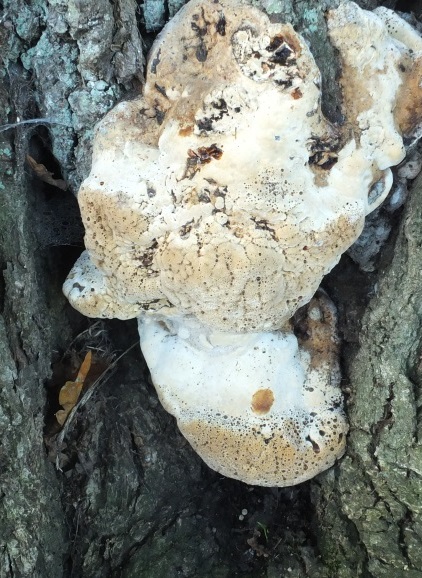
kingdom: Fungi
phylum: Basidiomycota
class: Agaricomycetes
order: Hymenochaetales
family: Hymenochaetaceae
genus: Pseudoinonotus
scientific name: Pseudoinonotus dryadeus
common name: ege-spejlporesvamp
